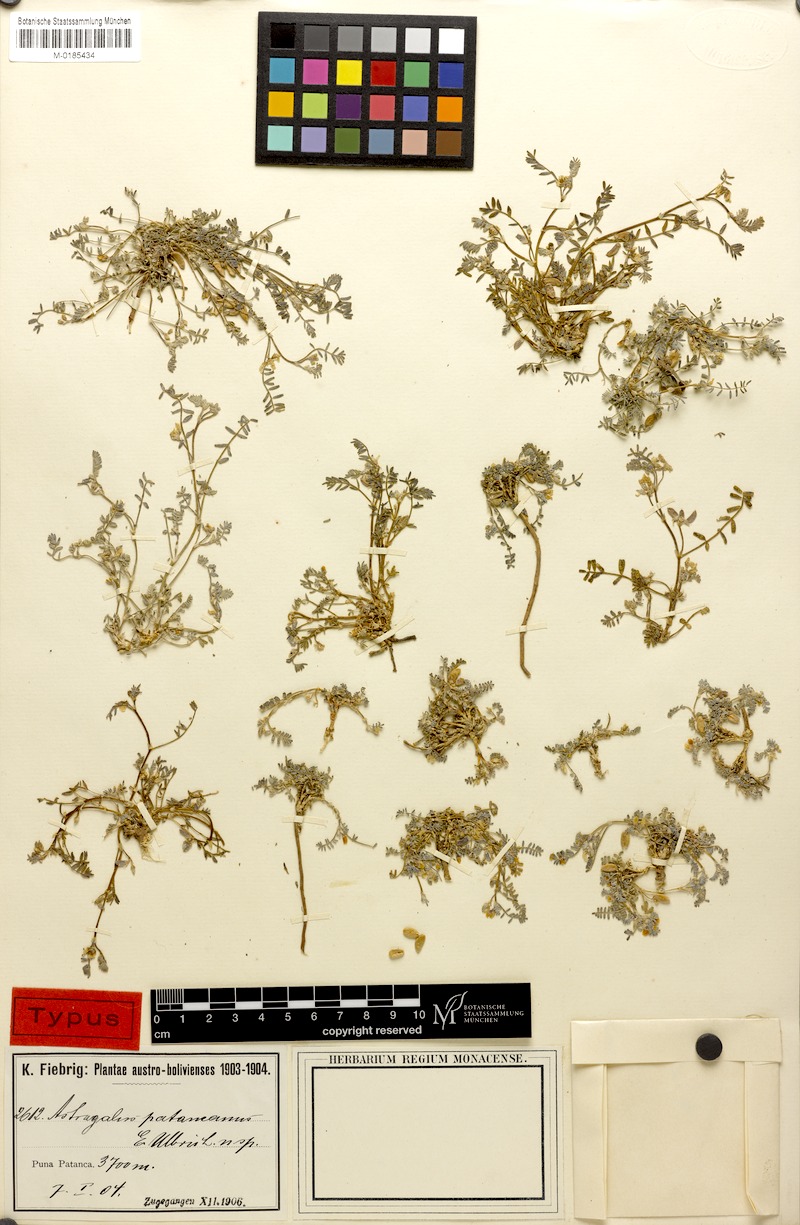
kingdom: Plantae
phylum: Tracheophyta
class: Magnoliopsida
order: Fabales
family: Fabaceae
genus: Astragalus
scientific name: Astragalus micranthellus
